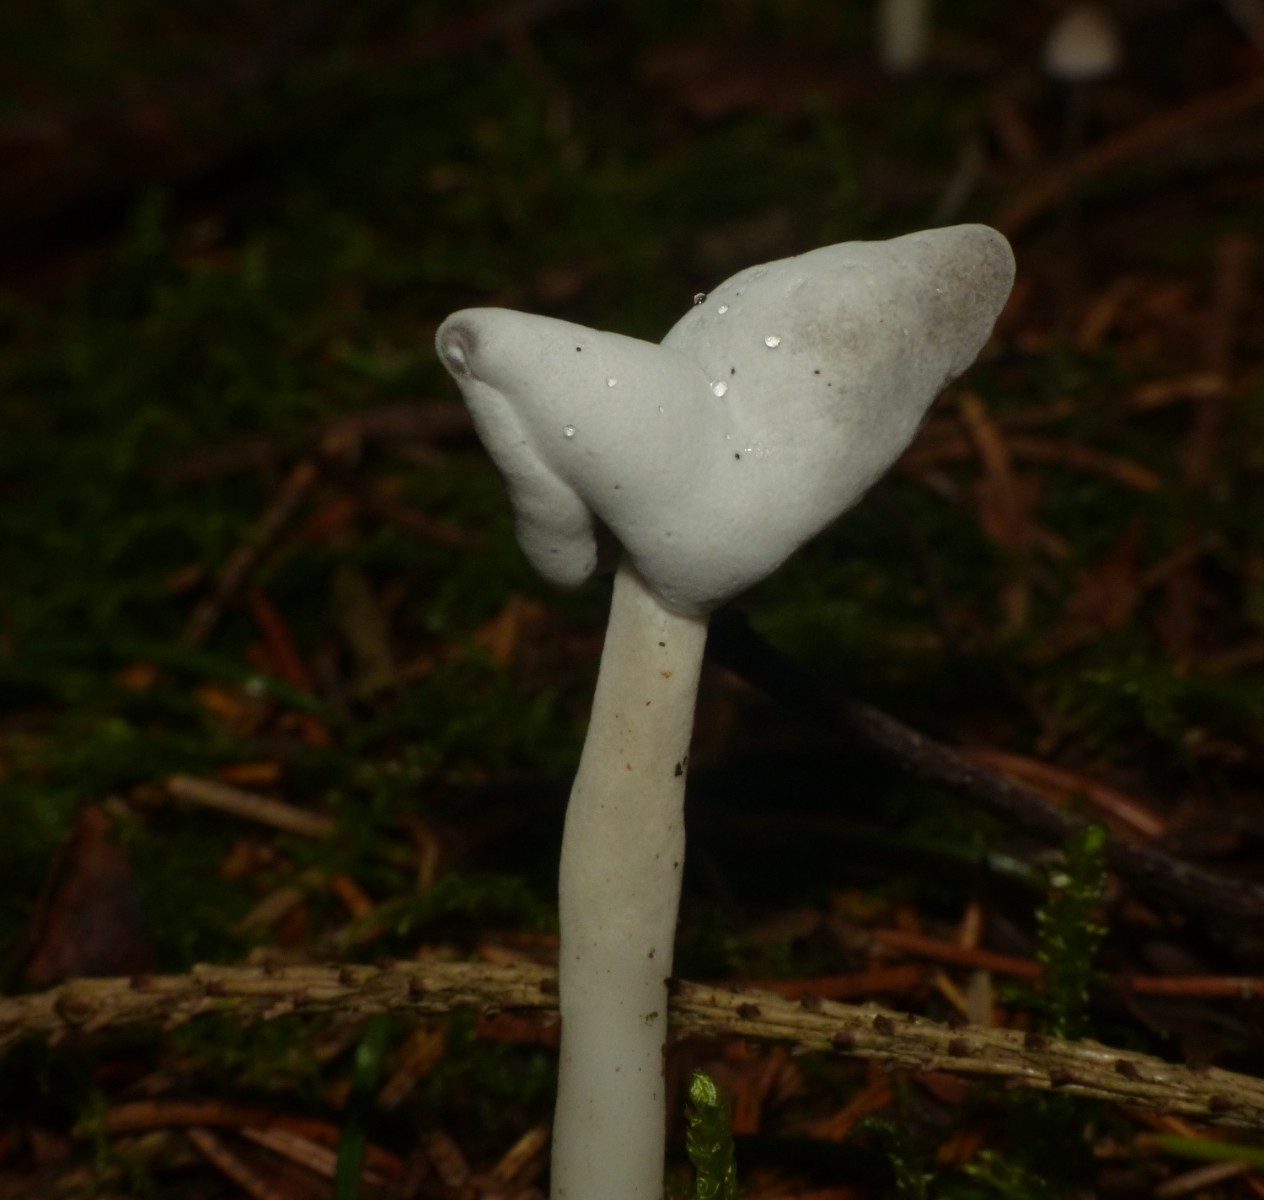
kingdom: Fungi
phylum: Ascomycota
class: Sordariomycetes
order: Hypocreales
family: Hypocreaceae
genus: Hypomyces
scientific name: Hypomyces cervinus
